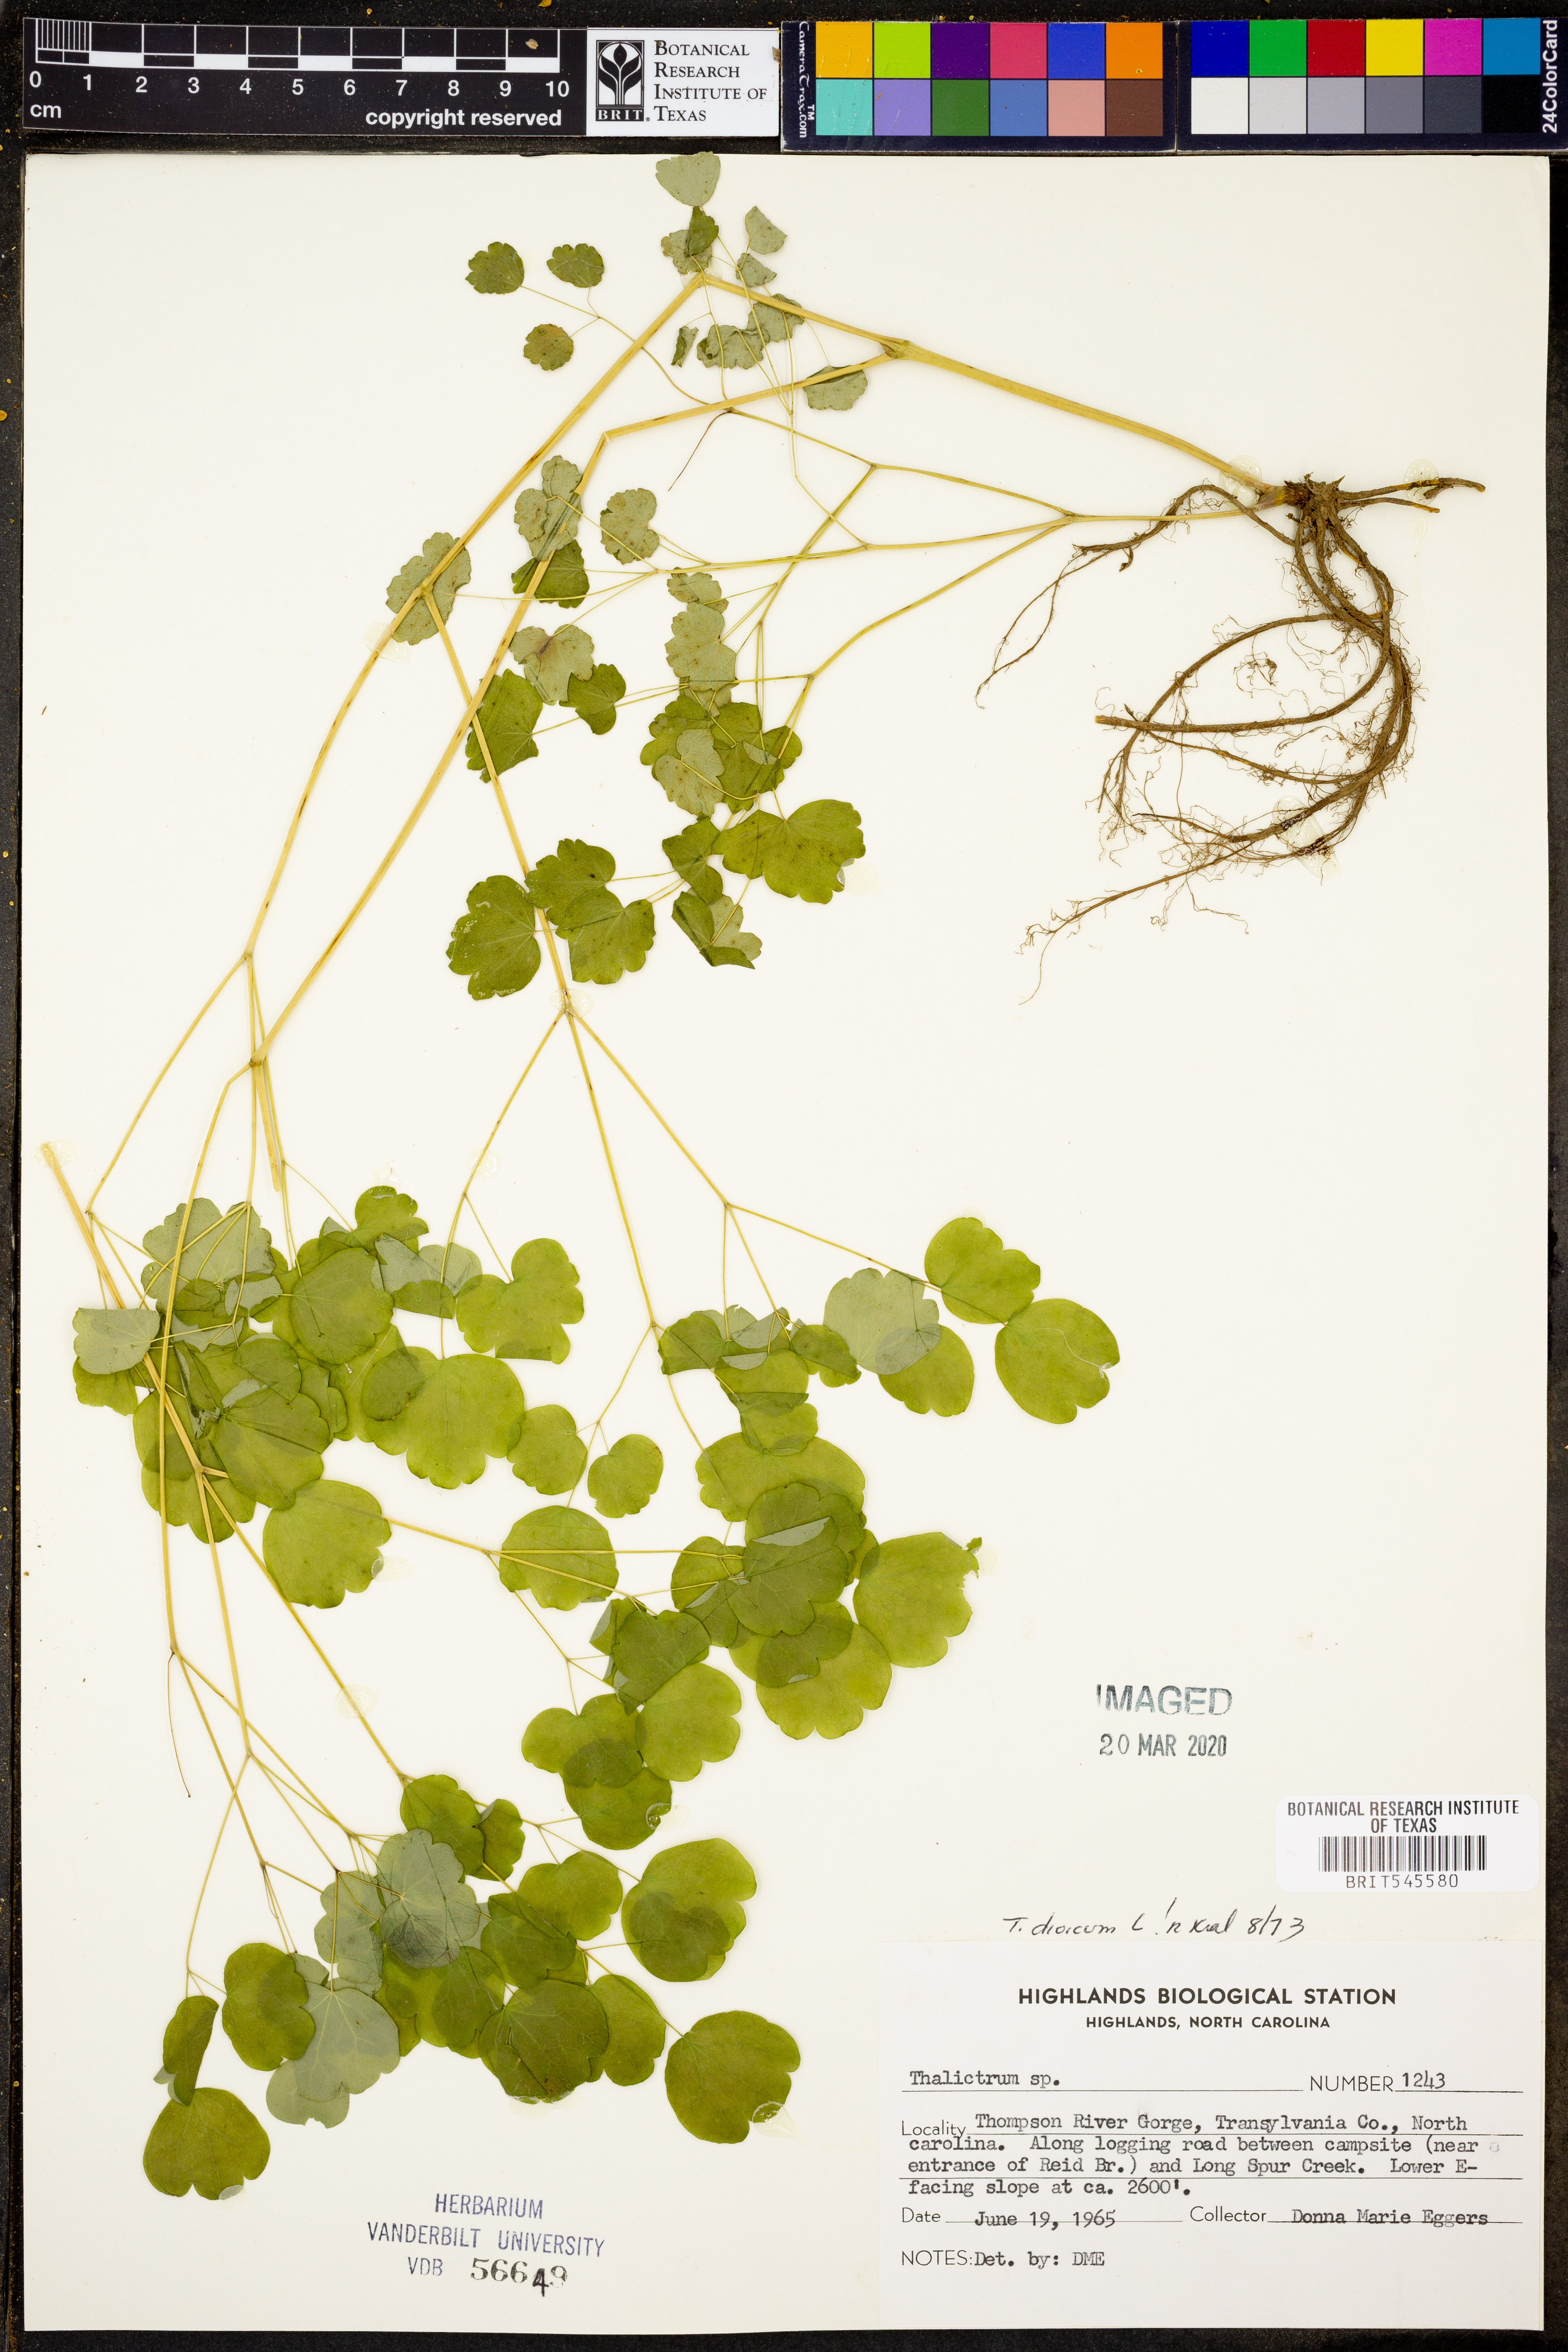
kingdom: Plantae
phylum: Tracheophyta
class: Magnoliopsida
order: Ranunculales
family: Ranunculaceae
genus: Thalictrum
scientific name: Thalictrum dioicum
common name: Early meadow-rue
